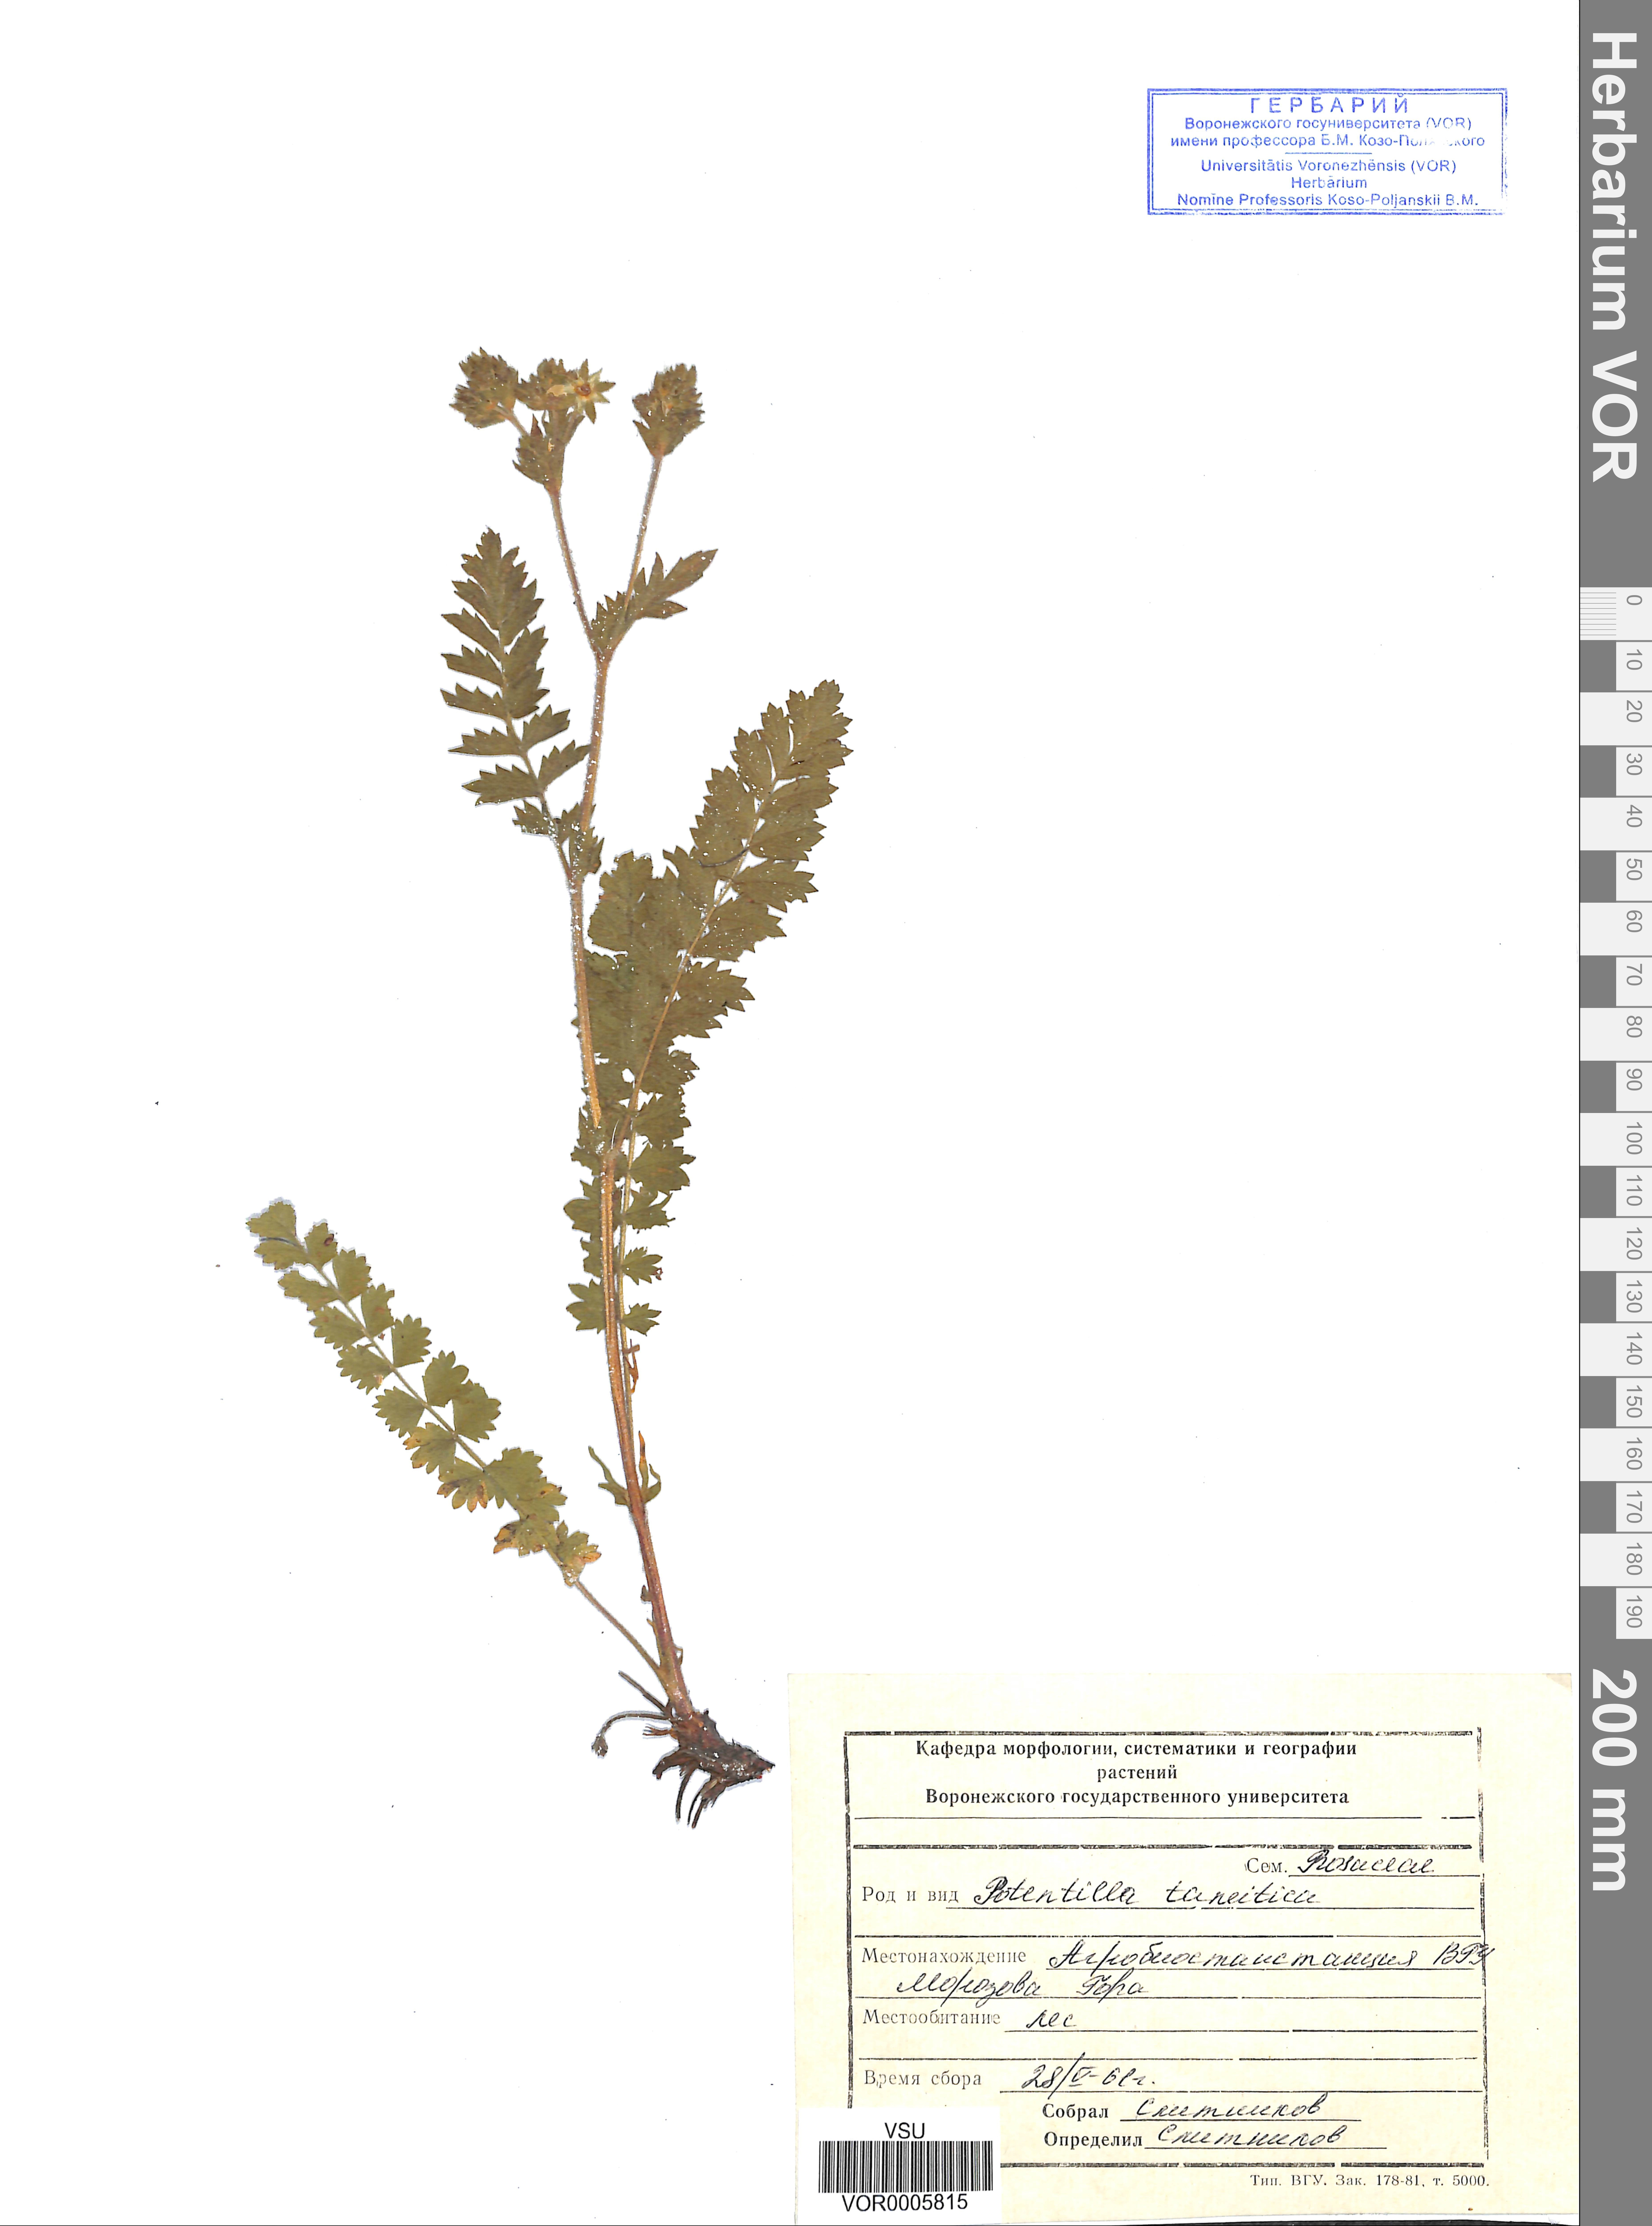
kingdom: Plantae
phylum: Tracheophyta
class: Magnoliopsida
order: Rosales
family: Rosaceae
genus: Potentilla
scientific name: Potentilla tanaitica
